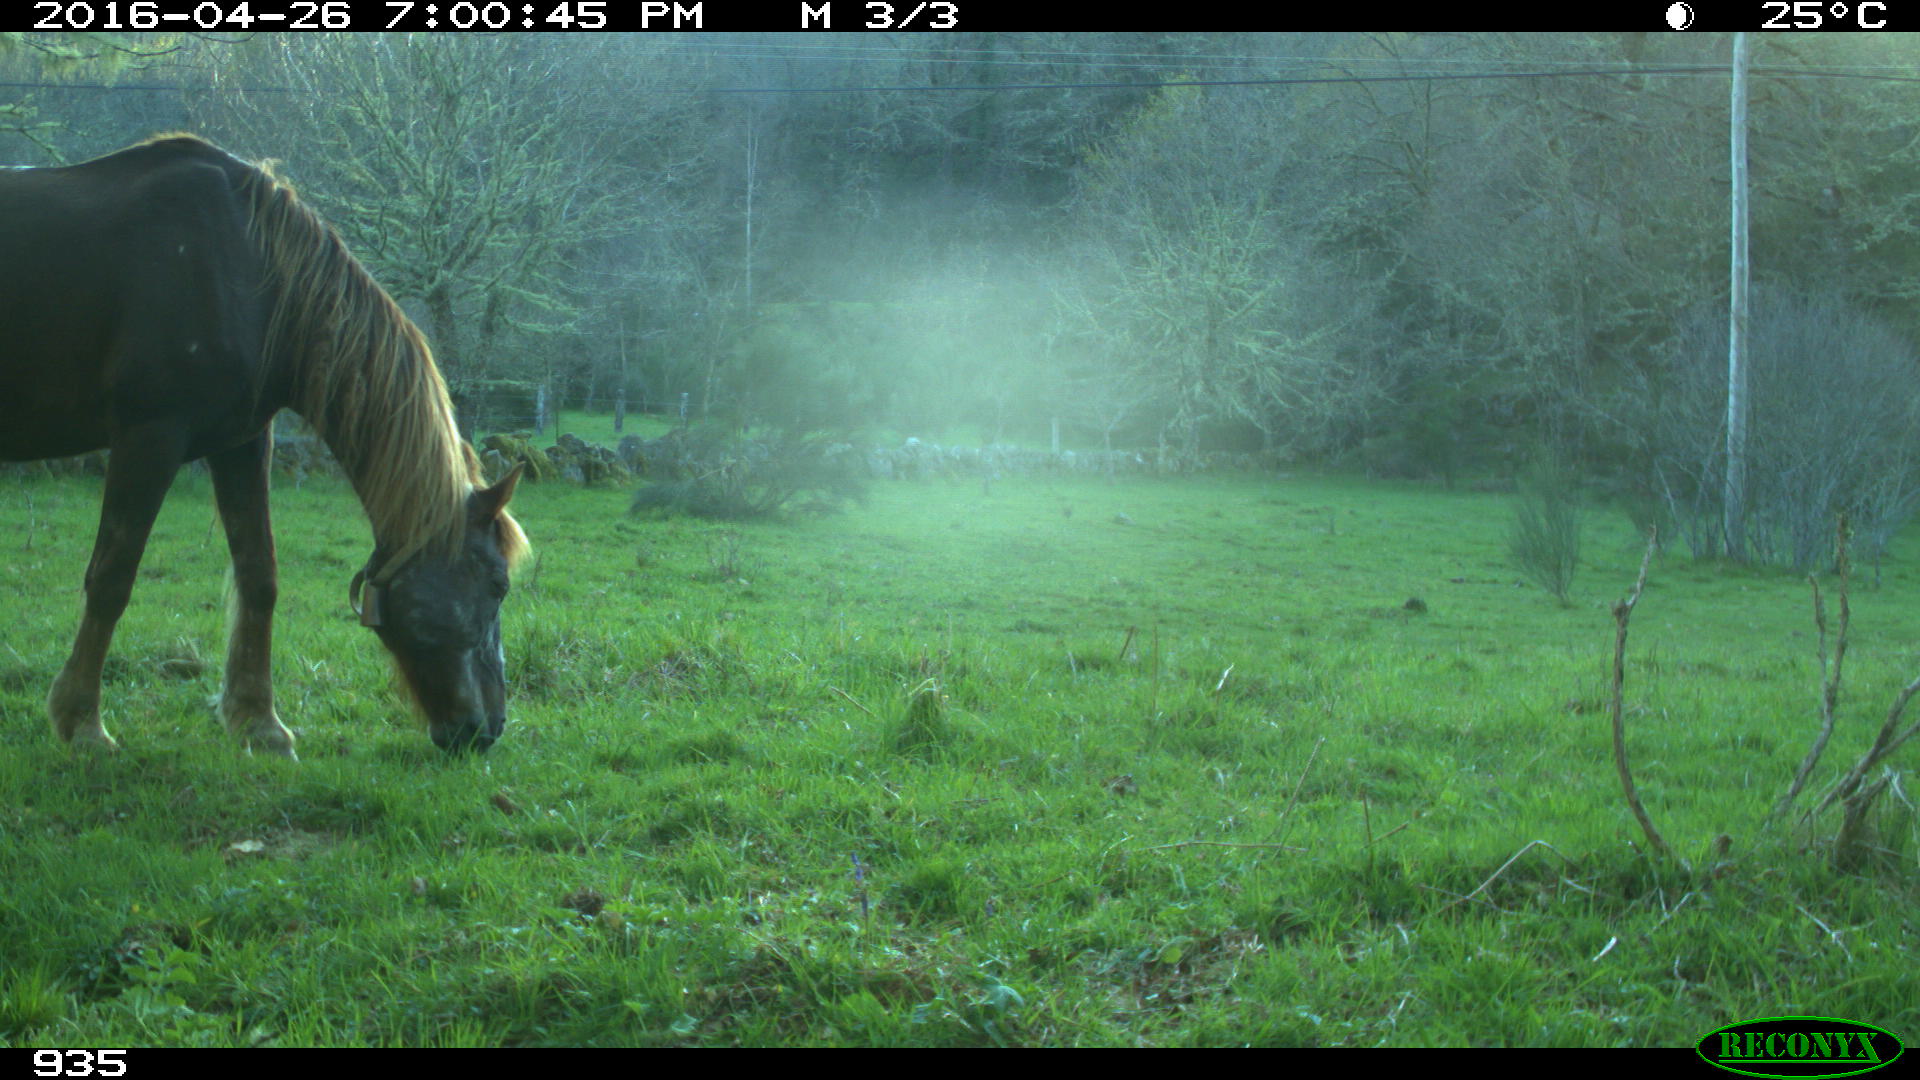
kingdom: Animalia
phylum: Chordata
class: Mammalia
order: Perissodactyla
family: Equidae
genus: Equus
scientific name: Equus caballus
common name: Horse
